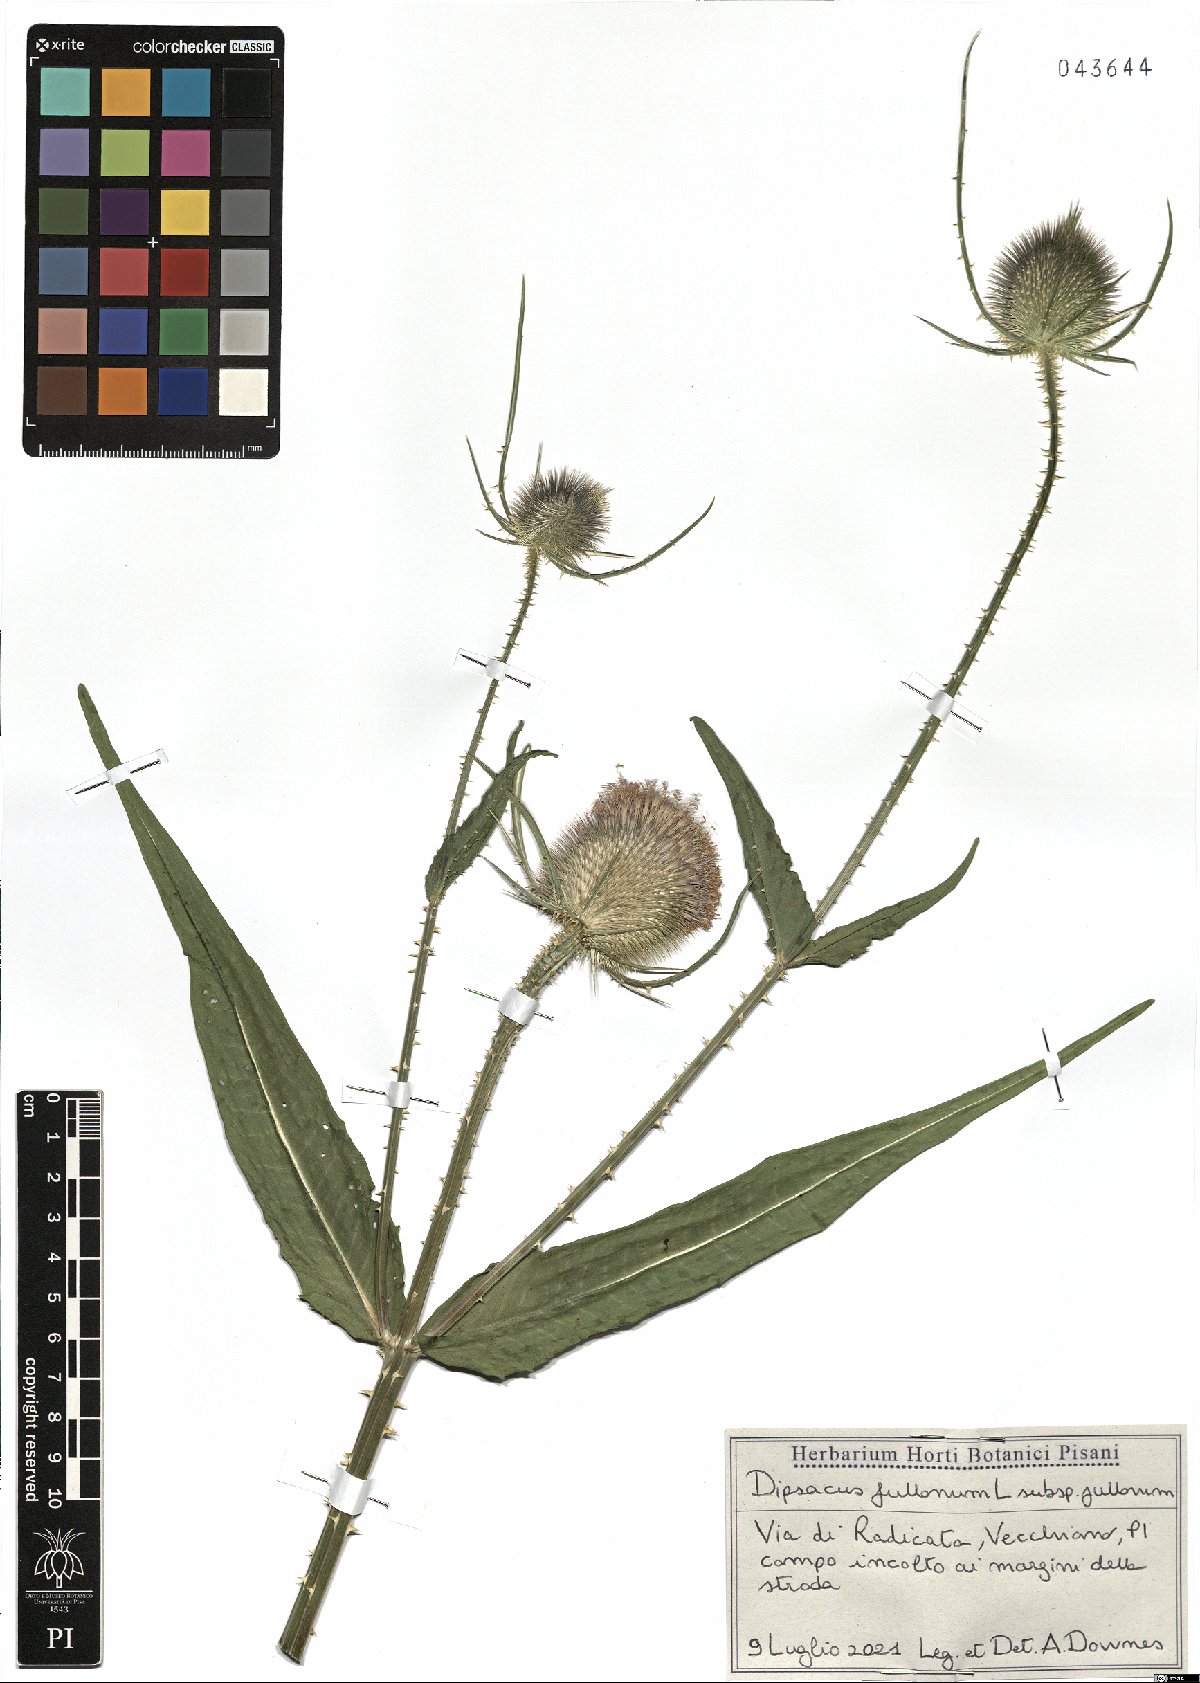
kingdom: Plantae
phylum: Tracheophyta
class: Magnoliopsida
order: Dipsacales
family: Caprifoliaceae
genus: Dipsacus
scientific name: Dipsacus fullonum
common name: Teasel
